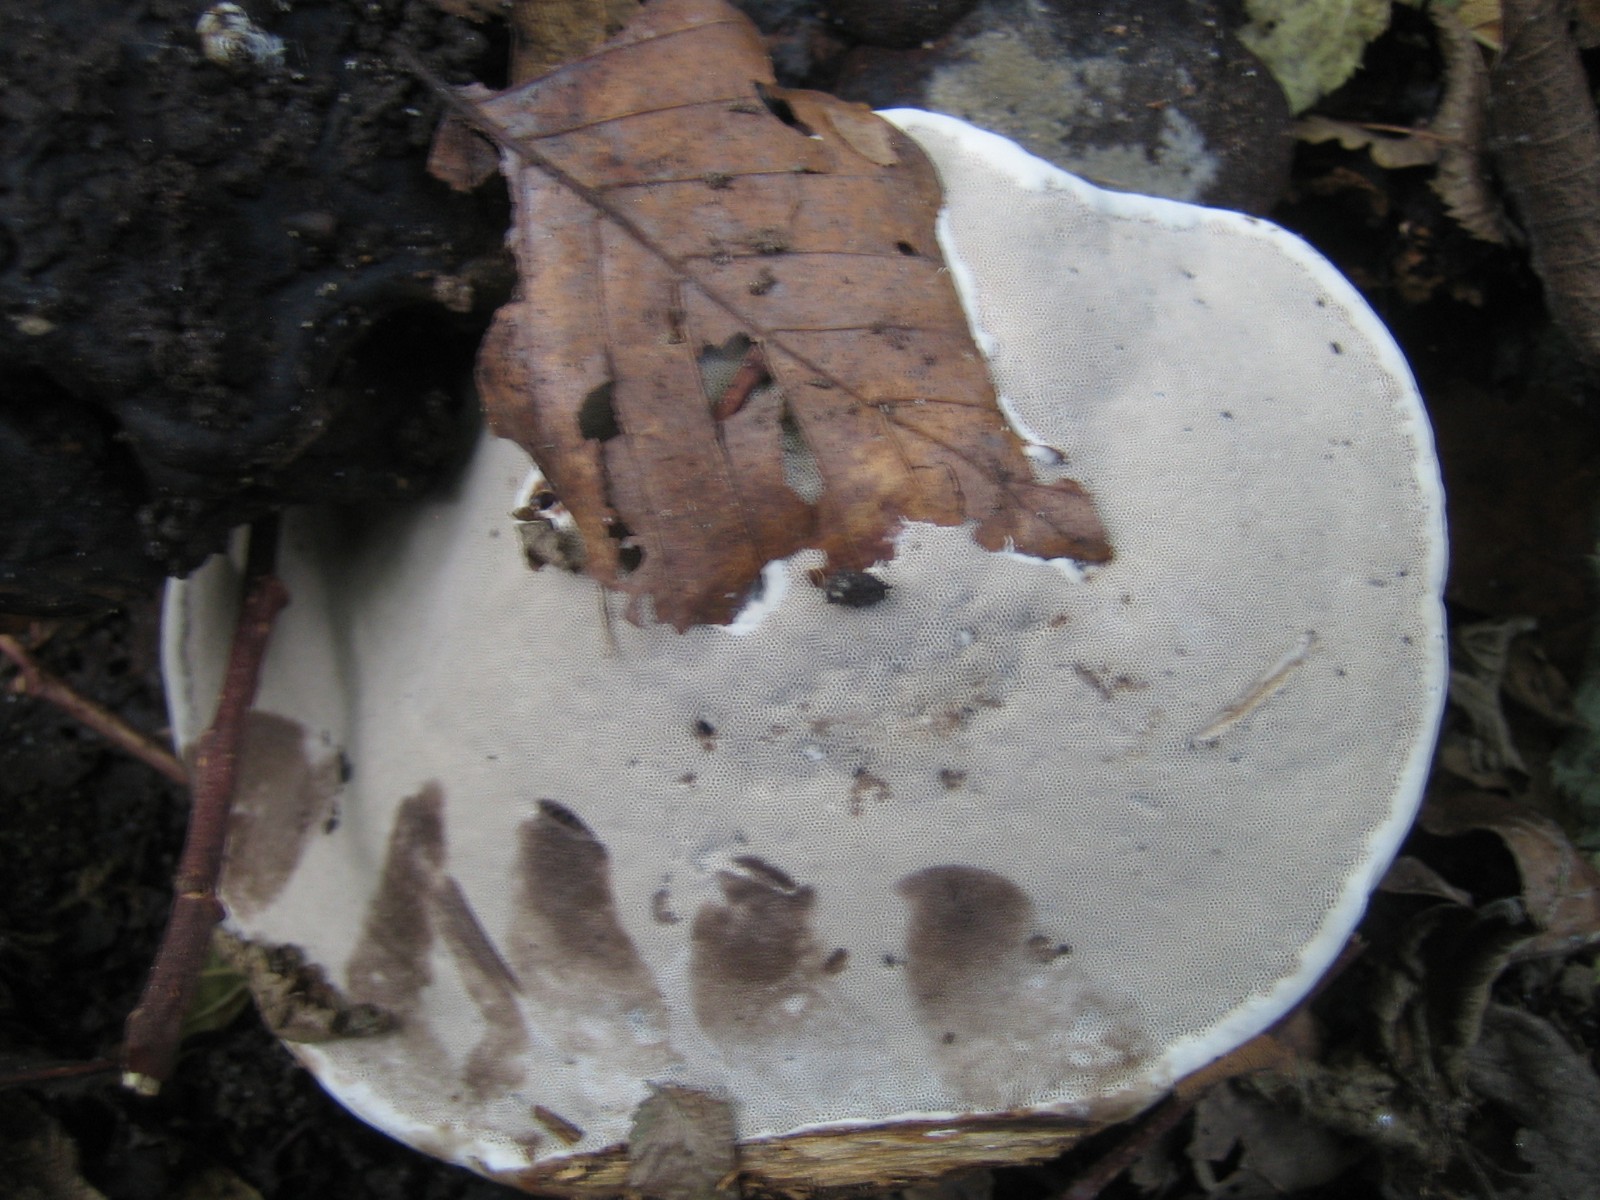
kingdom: Fungi
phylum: Basidiomycota
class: Agaricomycetes
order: Polyporales
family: Polyporaceae
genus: Fomes
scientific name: Fomes fomentarius
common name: tøndersvamp
